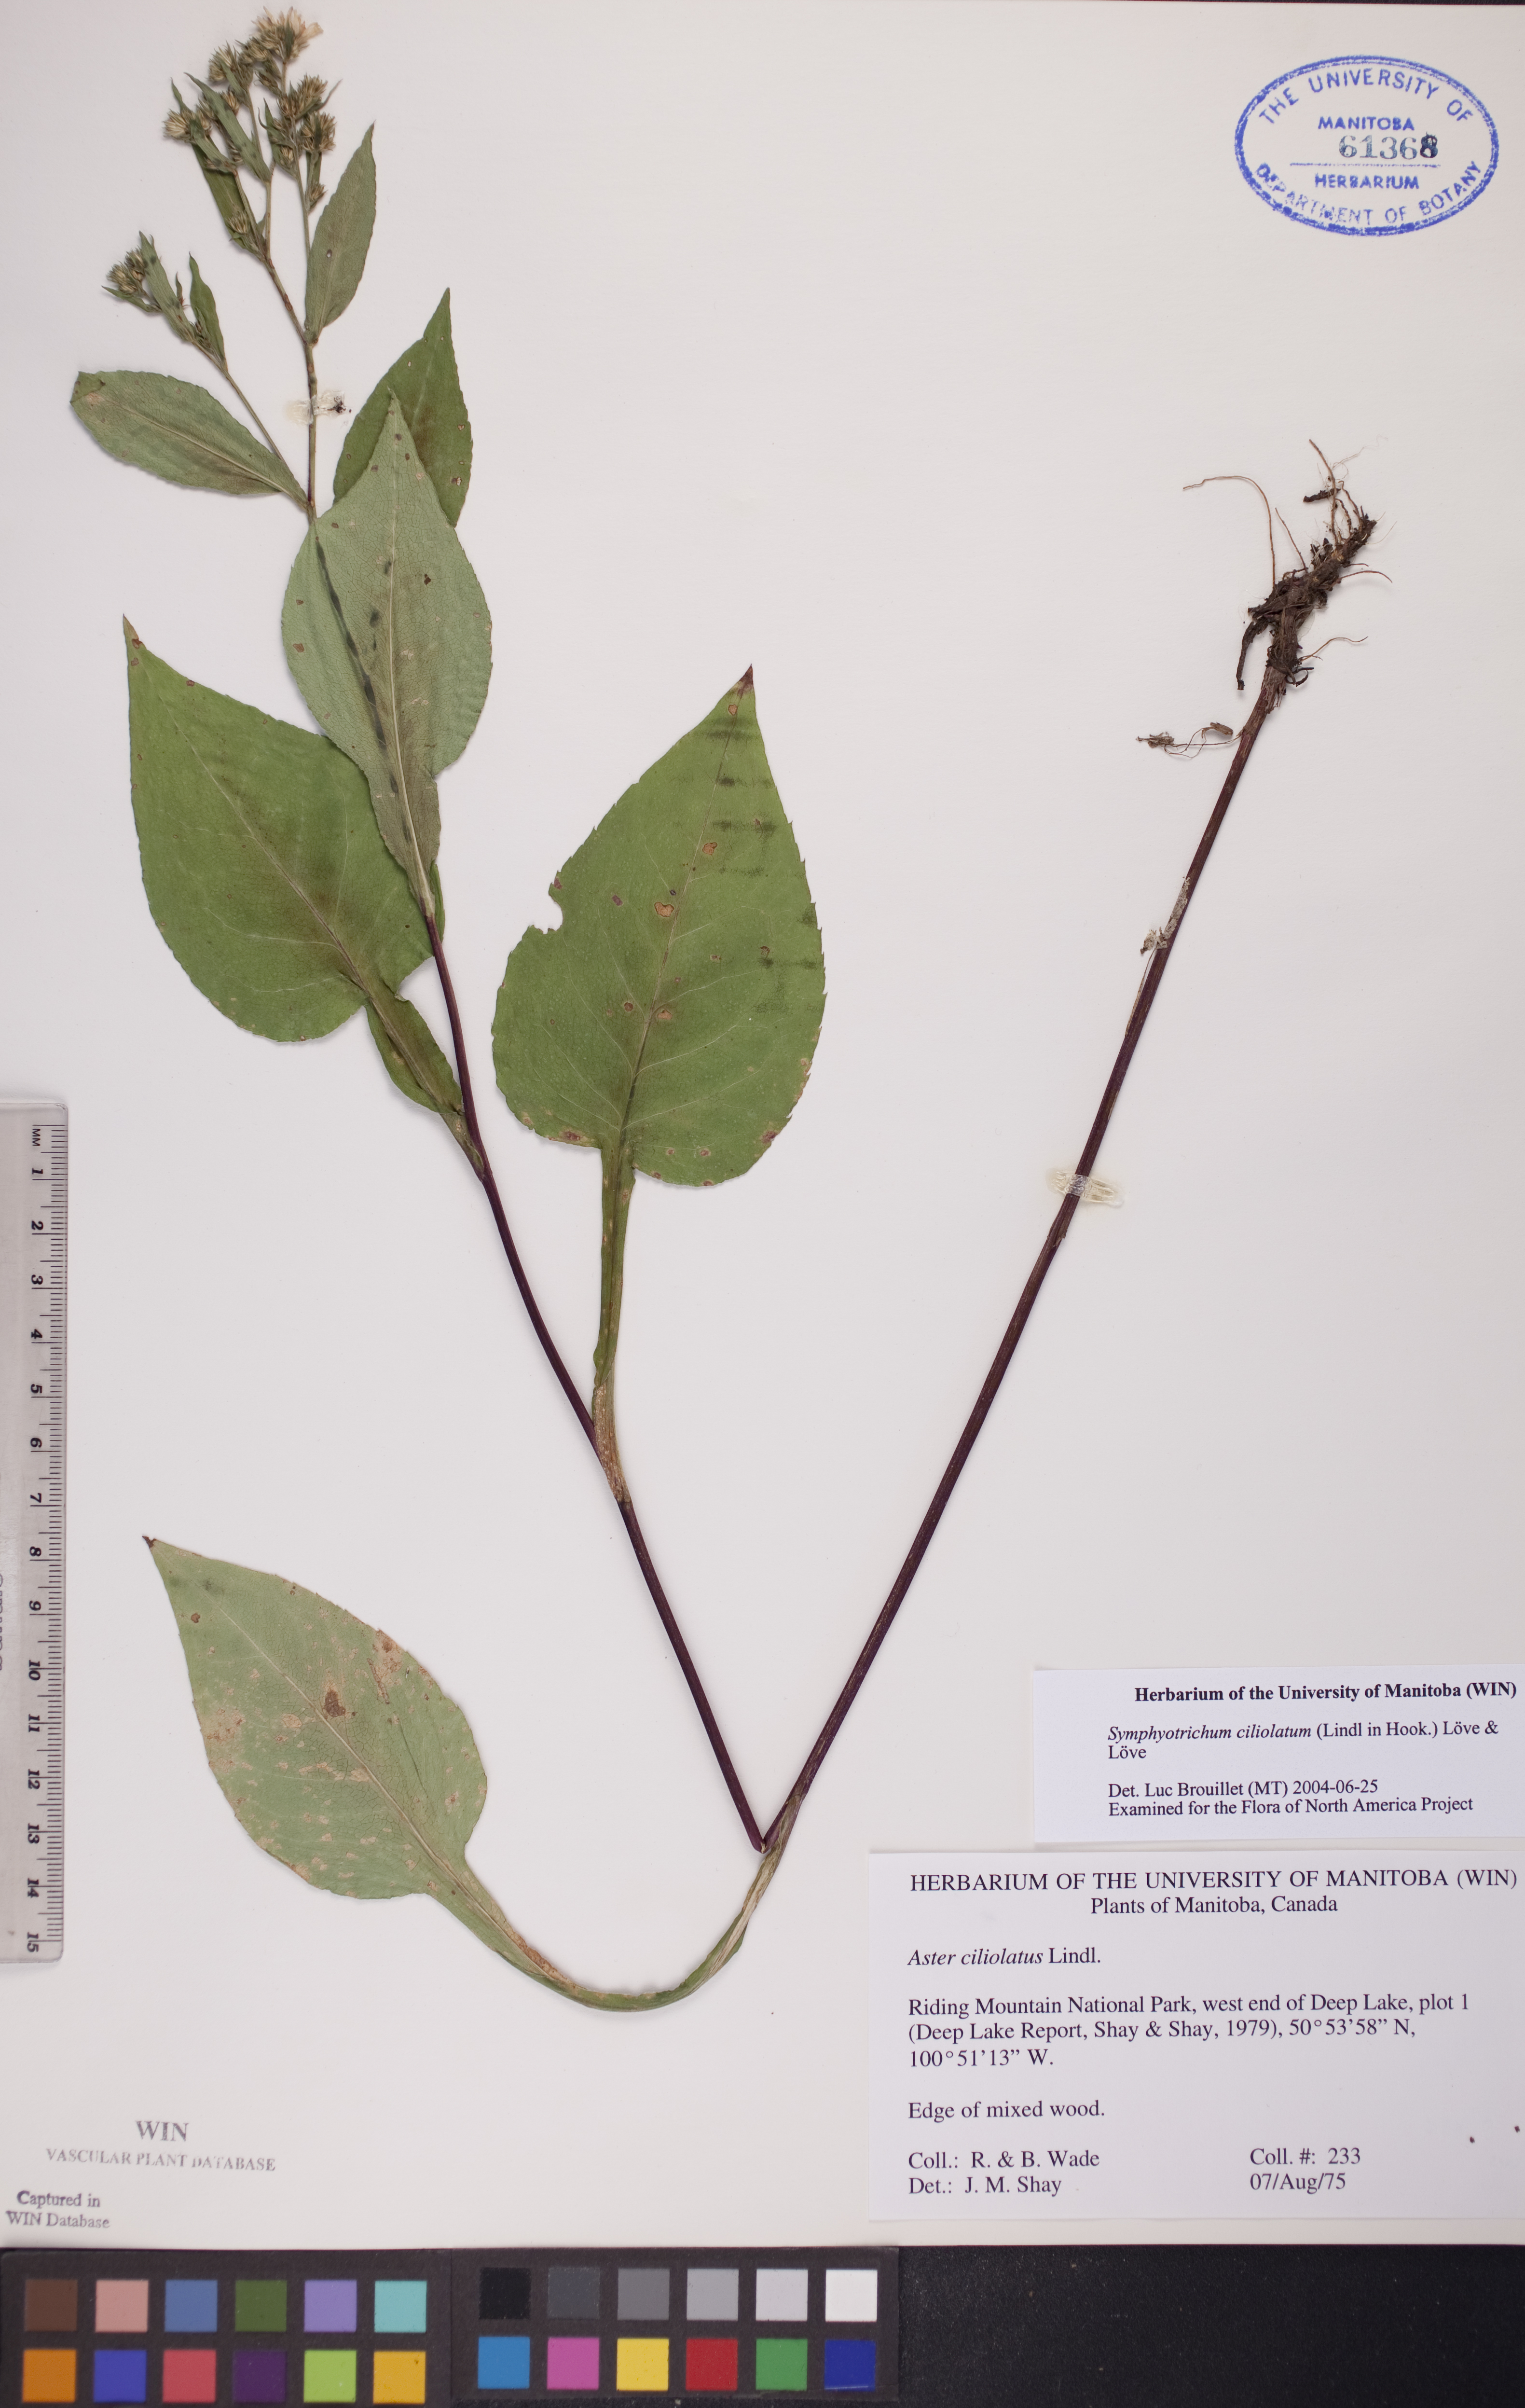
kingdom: Plantae
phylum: Tracheophyta
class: Magnoliopsida
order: Asterales
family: Asteraceae
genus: Symphyotrichum
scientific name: Symphyotrichum ciliolatum
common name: Fringed blue aster
